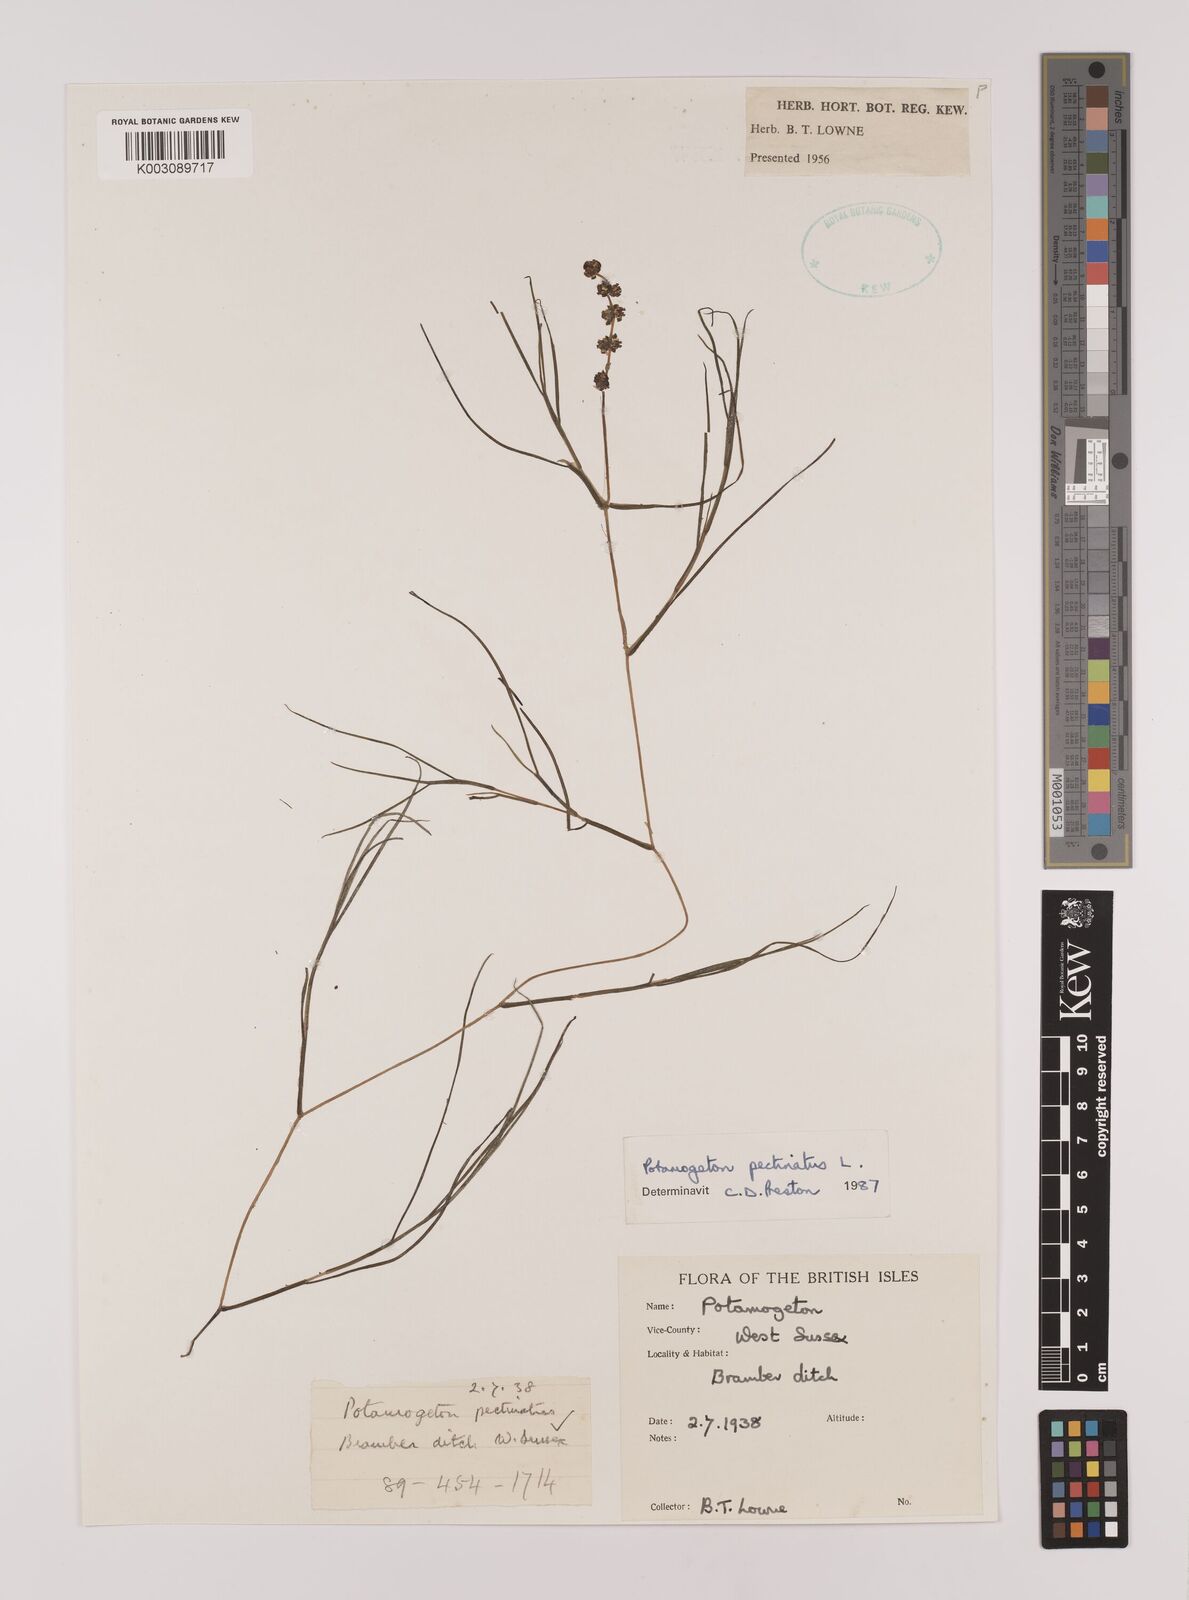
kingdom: Plantae
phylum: Tracheophyta
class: Liliopsida
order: Alismatales
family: Potamogetonaceae
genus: Stuckenia
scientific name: Stuckenia pectinata
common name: Sago pondweed
